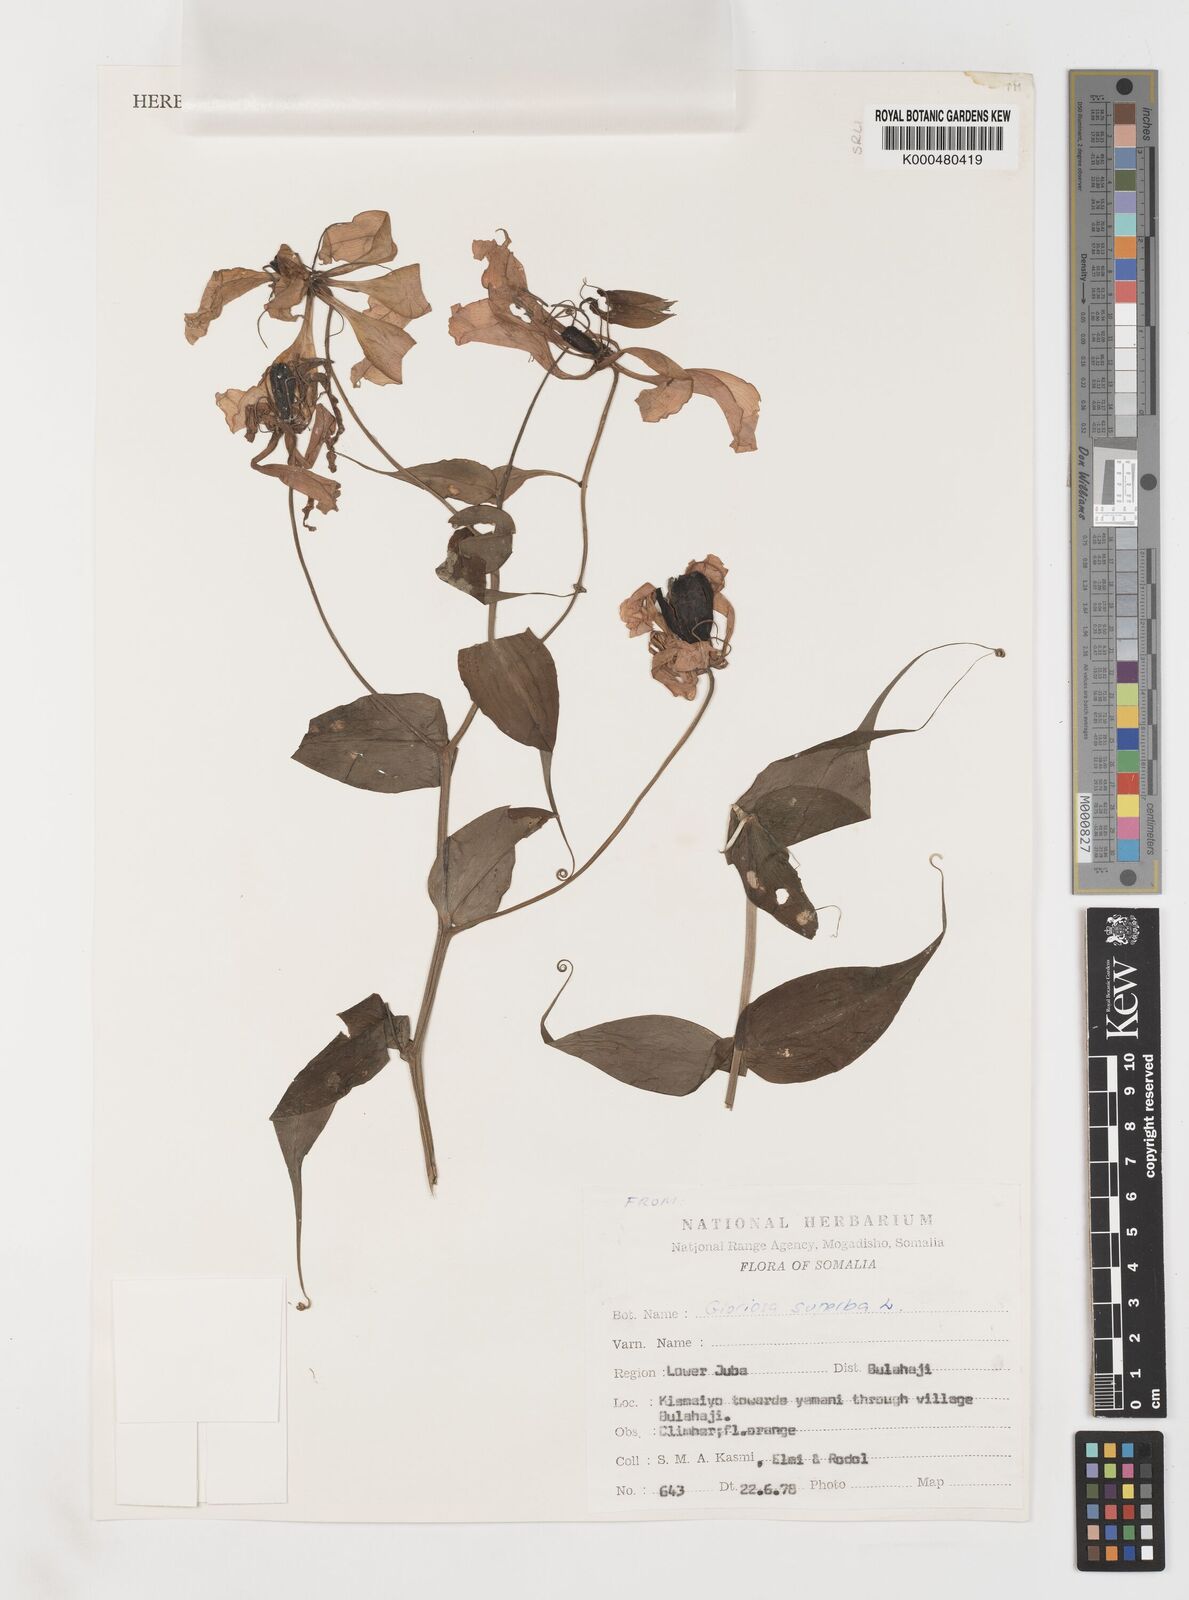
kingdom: Plantae
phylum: Tracheophyta
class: Liliopsida
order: Liliales
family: Colchicaceae
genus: Gloriosa
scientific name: Gloriosa superba
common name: Flame lily
